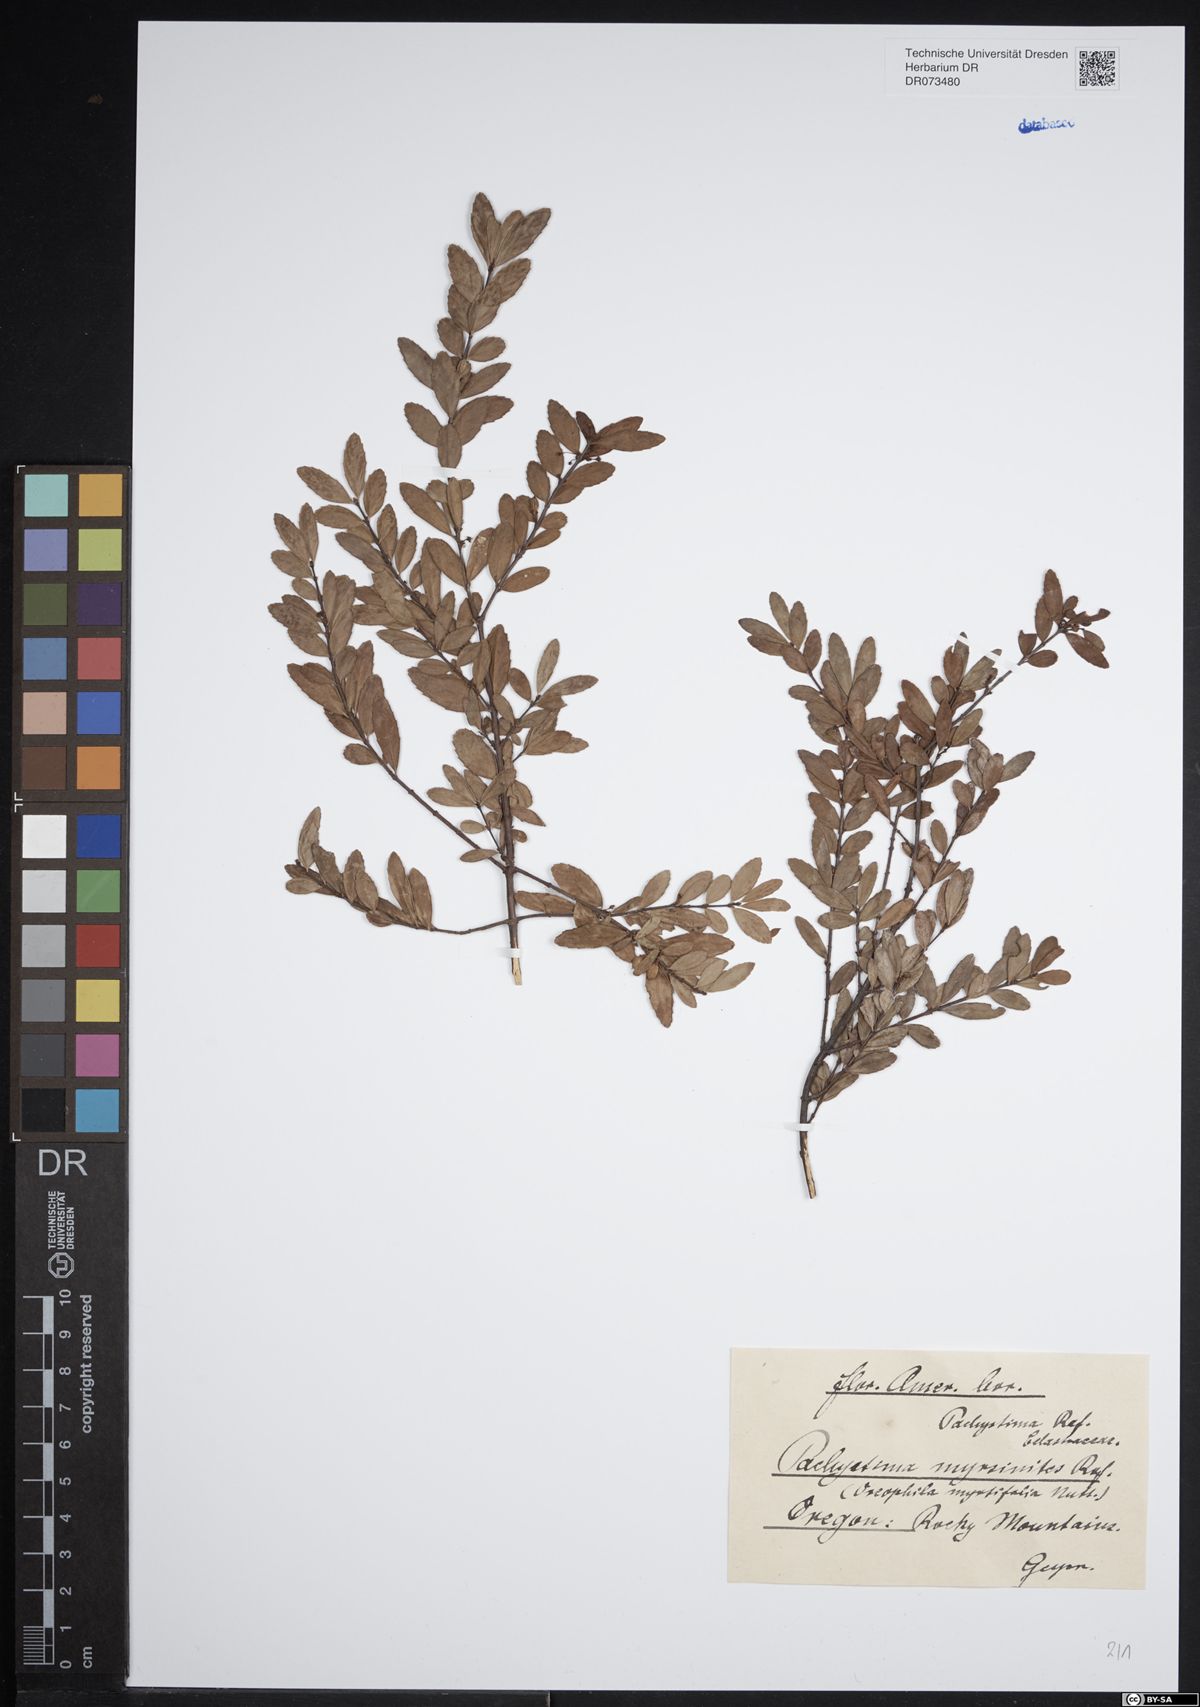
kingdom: Plantae
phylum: Tracheophyta
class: Magnoliopsida
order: Celastrales
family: Celastraceae
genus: Paxistima
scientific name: Paxistima myrsinites
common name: Mountain-lover
